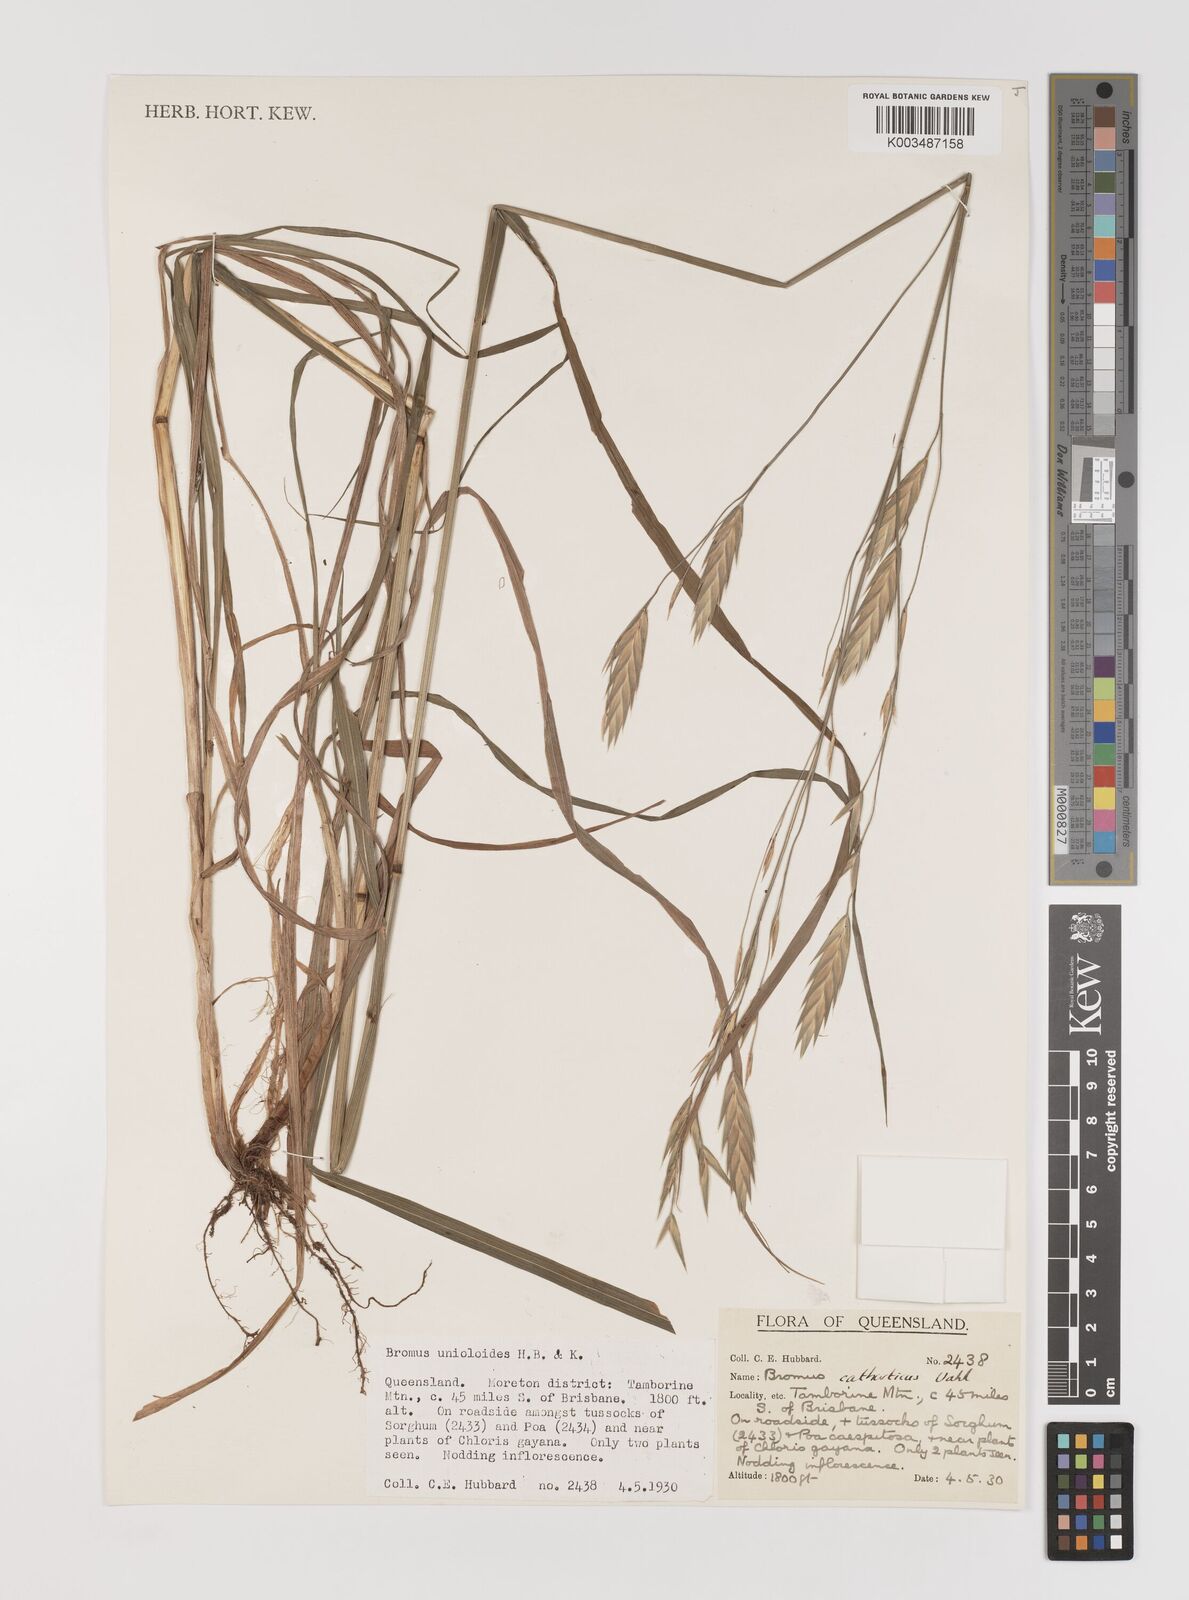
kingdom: Plantae
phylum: Tracheophyta
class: Liliopsida
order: Poales
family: Poaceae
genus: Bromus
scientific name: Bromus catharticus
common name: Rescuegrass
